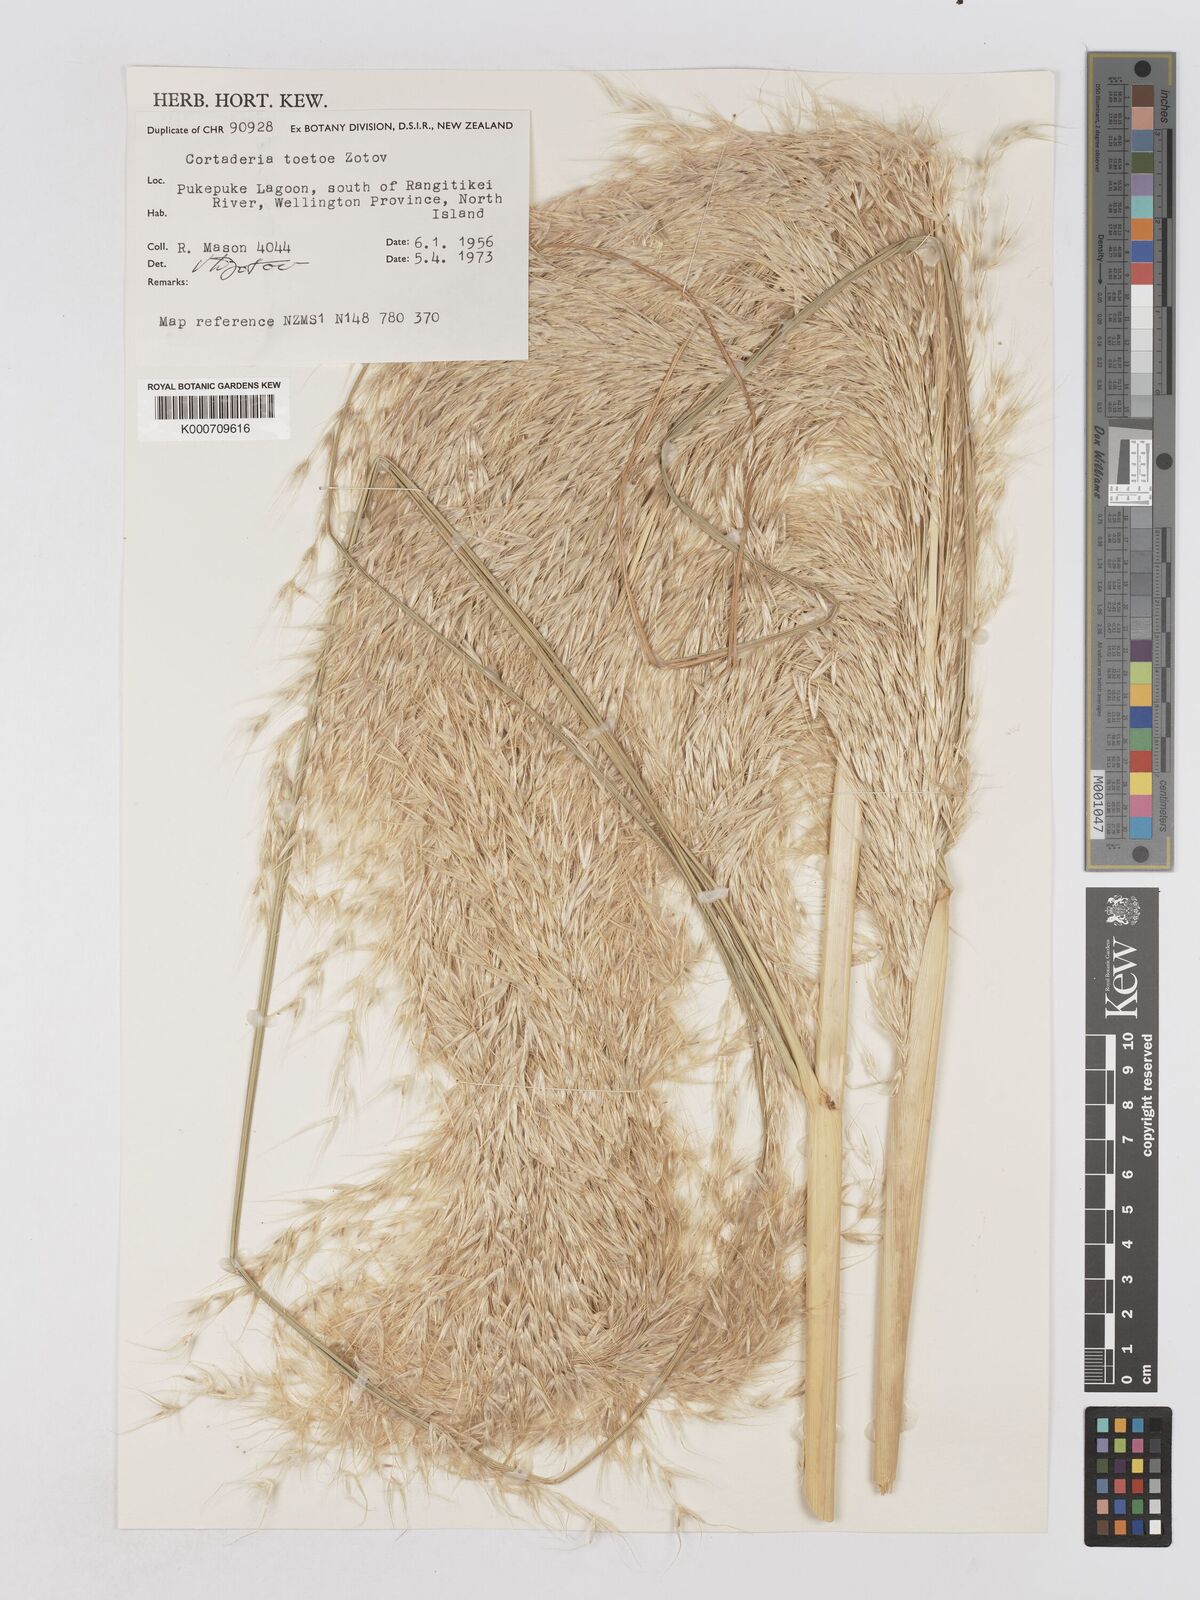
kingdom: Plantae
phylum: Tracheophyta
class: Liliopsida
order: Poales
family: Poaceae
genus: Austroderia
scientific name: Austroderia toetoe
